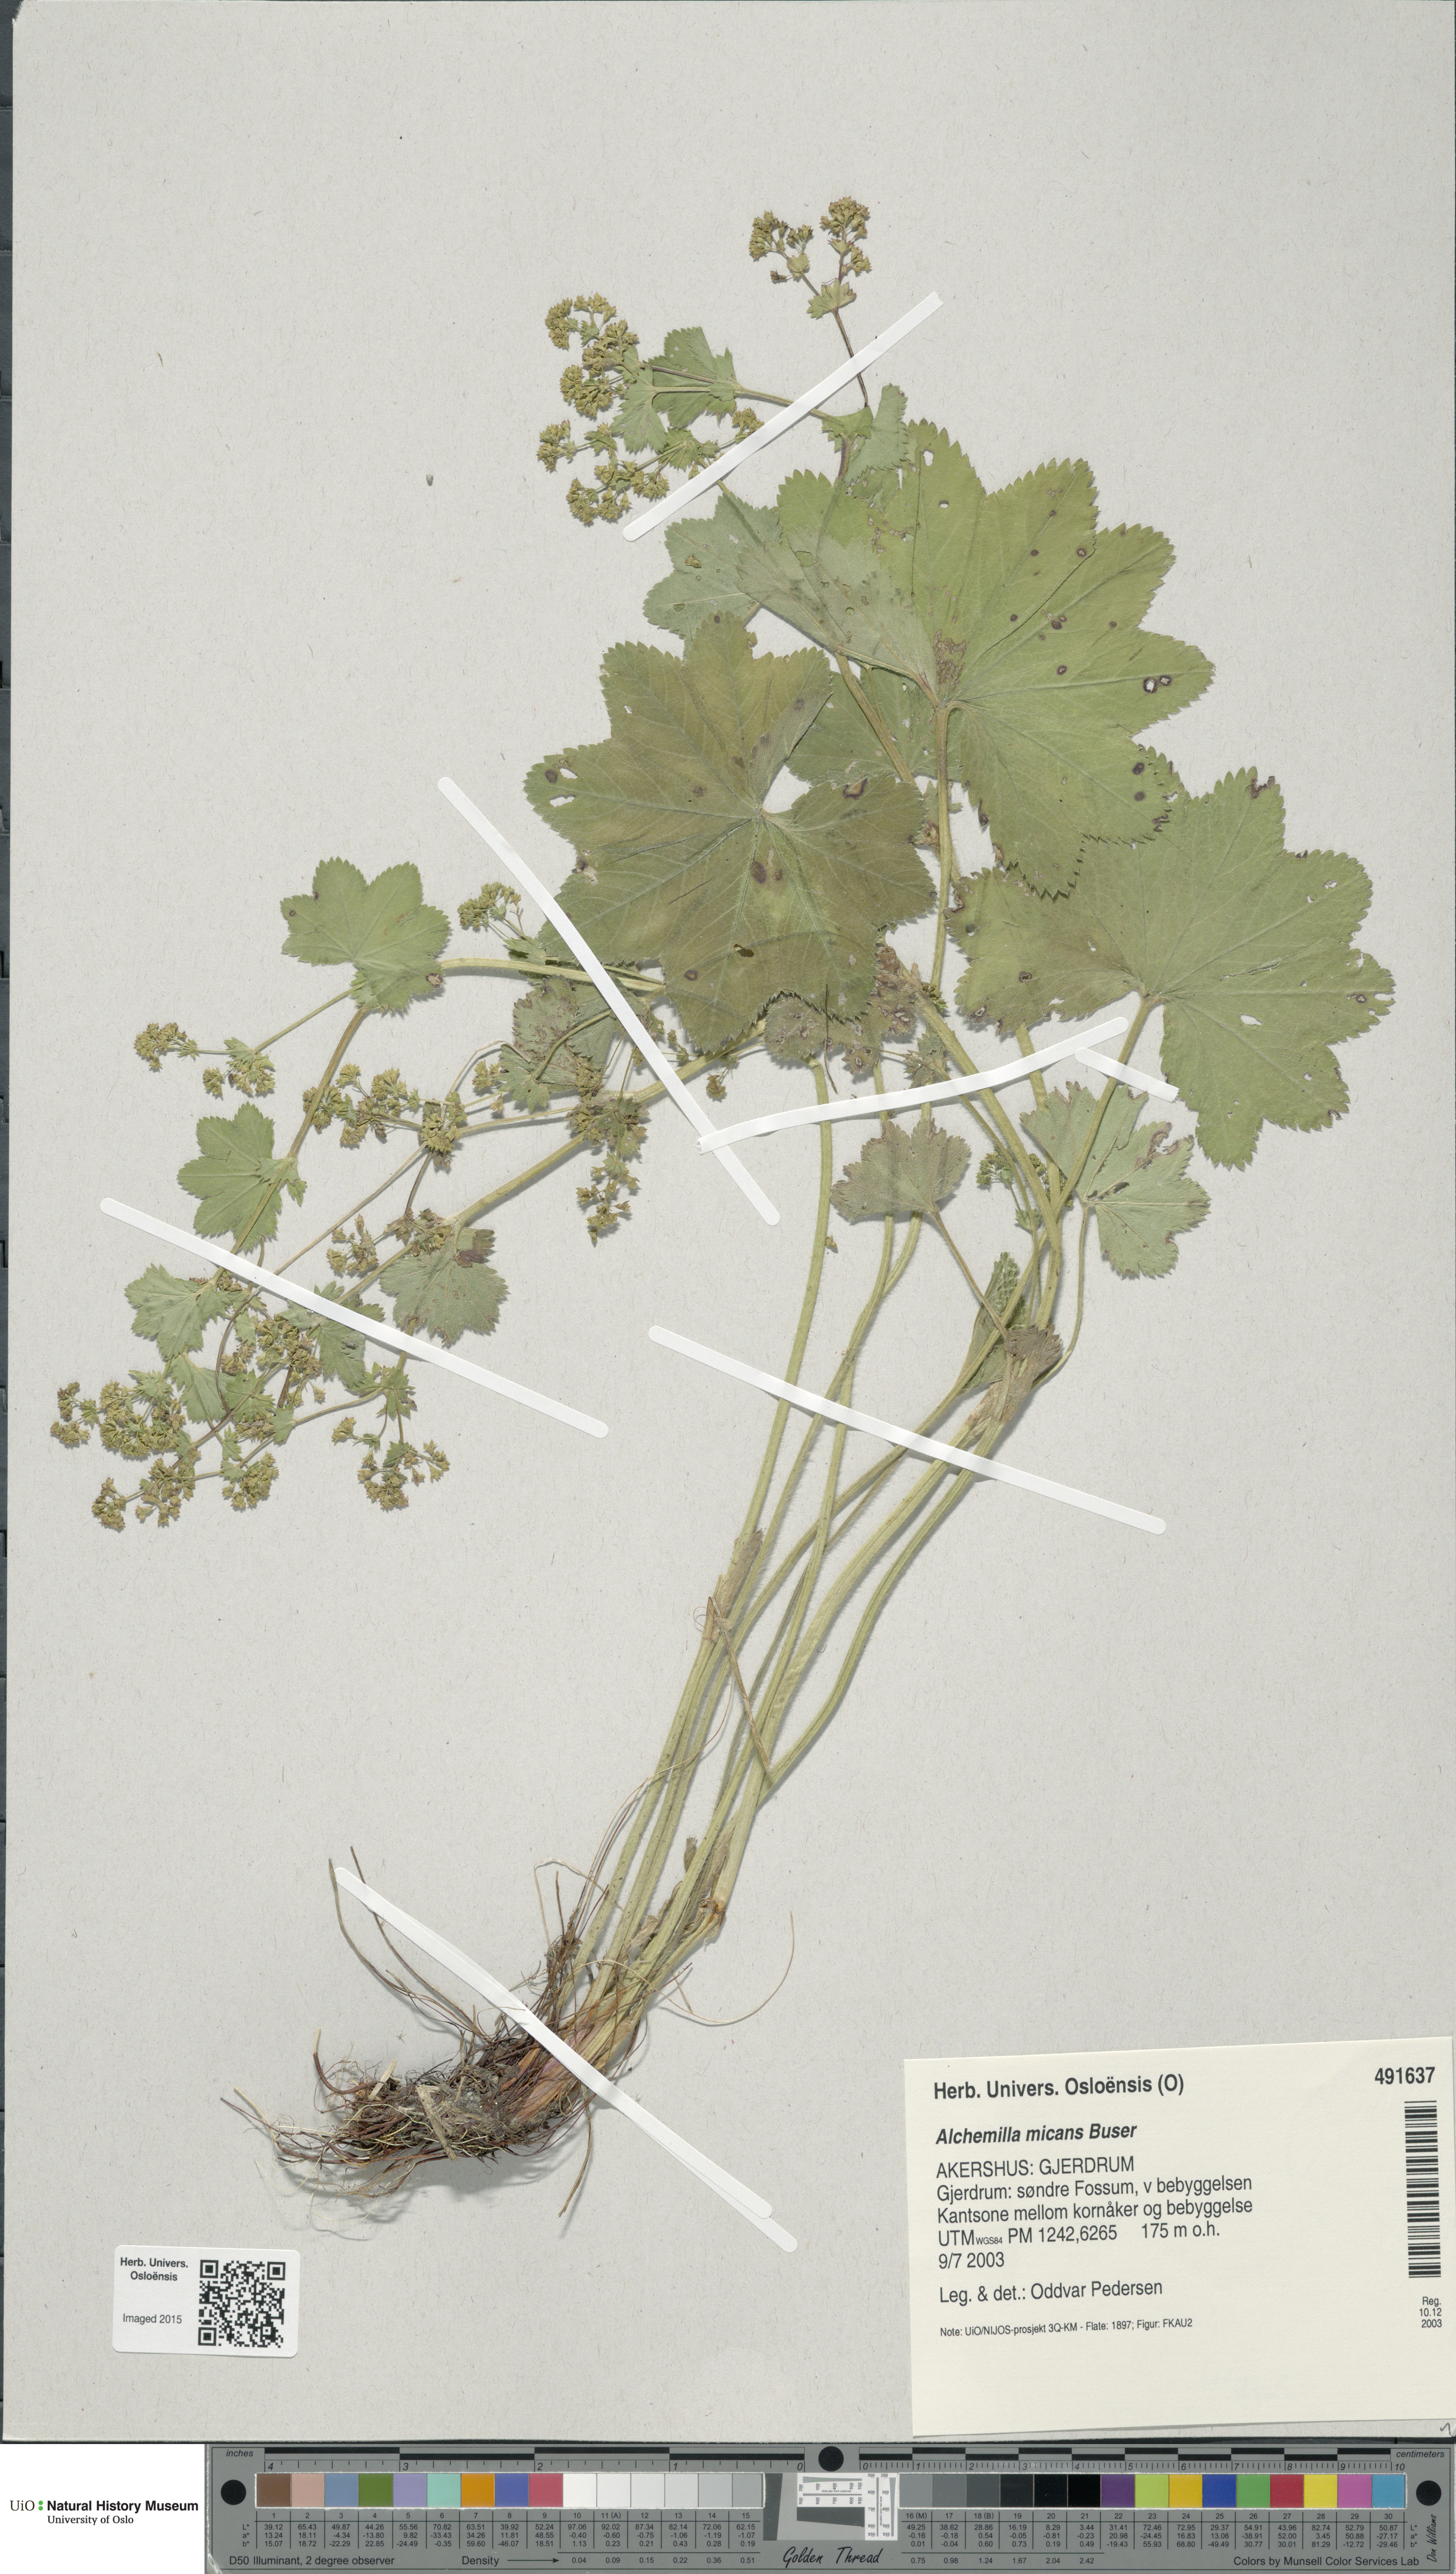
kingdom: Plantae
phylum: Tracheophyta
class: Magnoliopsida
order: Rosales
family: Rosaceae
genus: Alchemilla
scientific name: Alchemilla micans
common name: Gleaming lady's mantle
